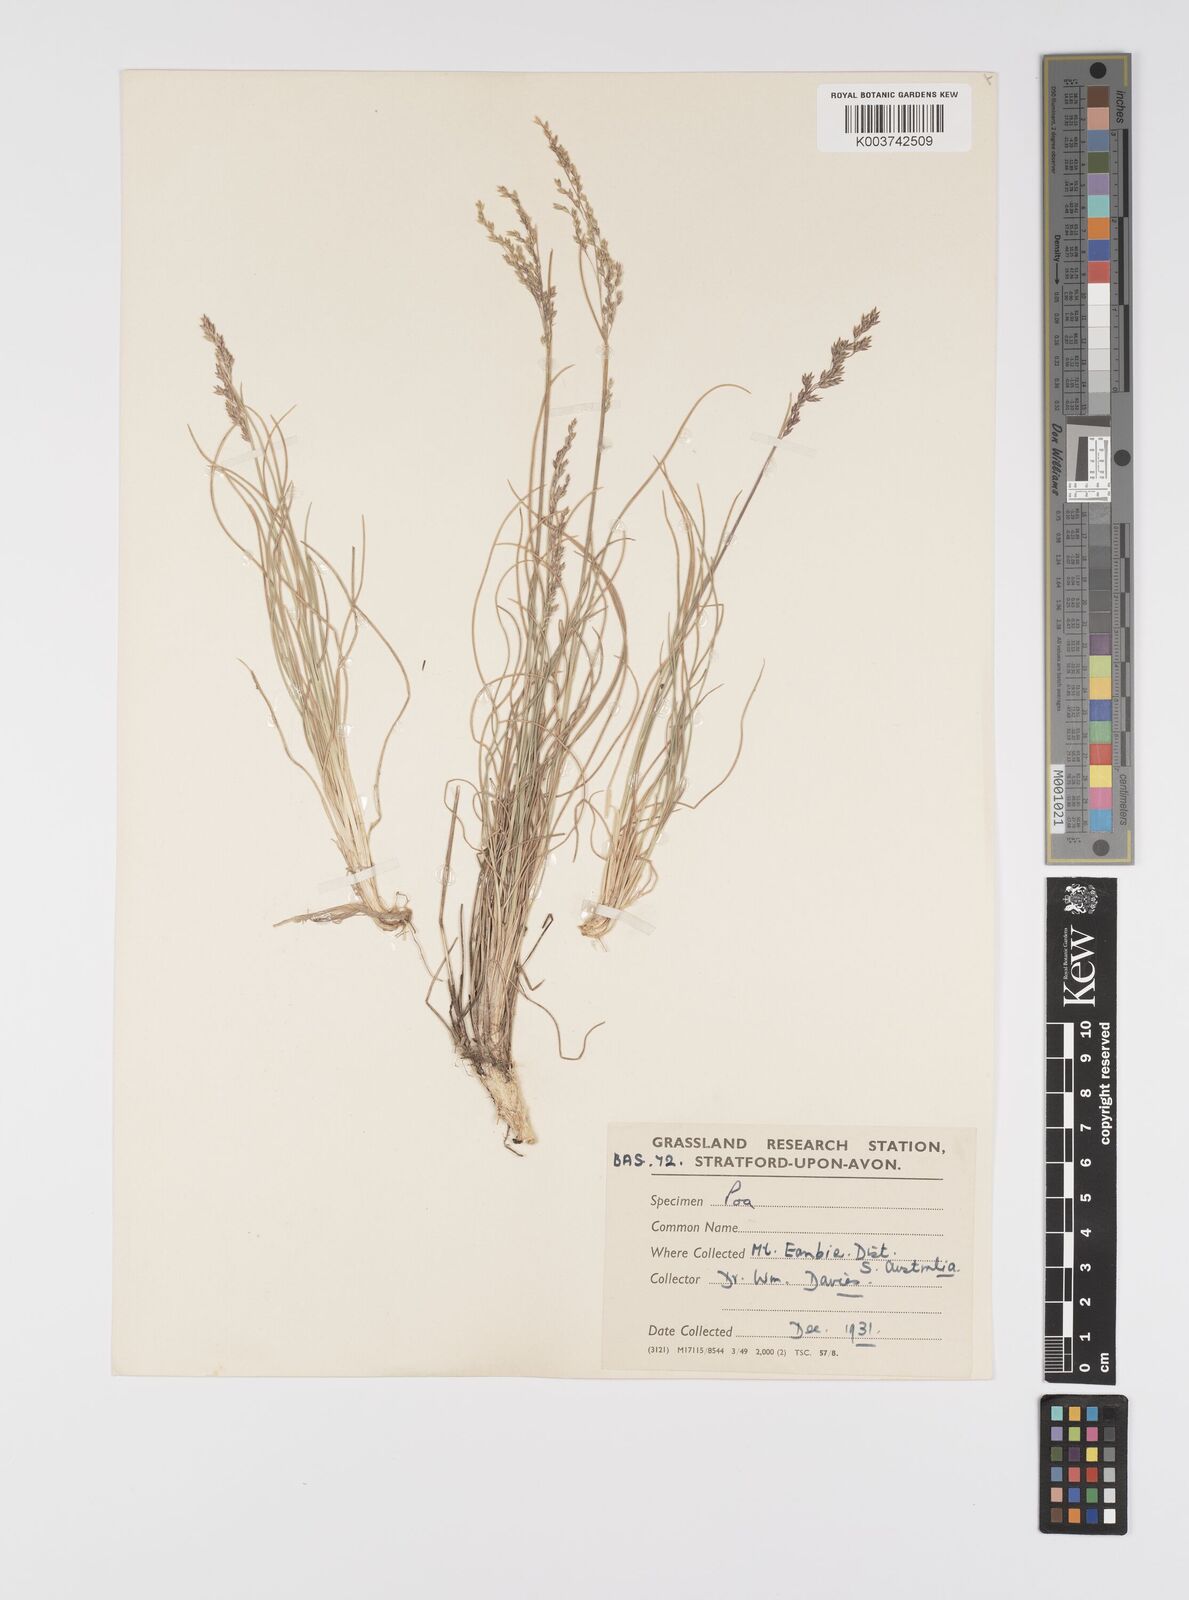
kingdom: Plantae
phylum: Tracheophyta
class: Liliopsida
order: Poales
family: Poaceae
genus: Poa
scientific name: Poa
